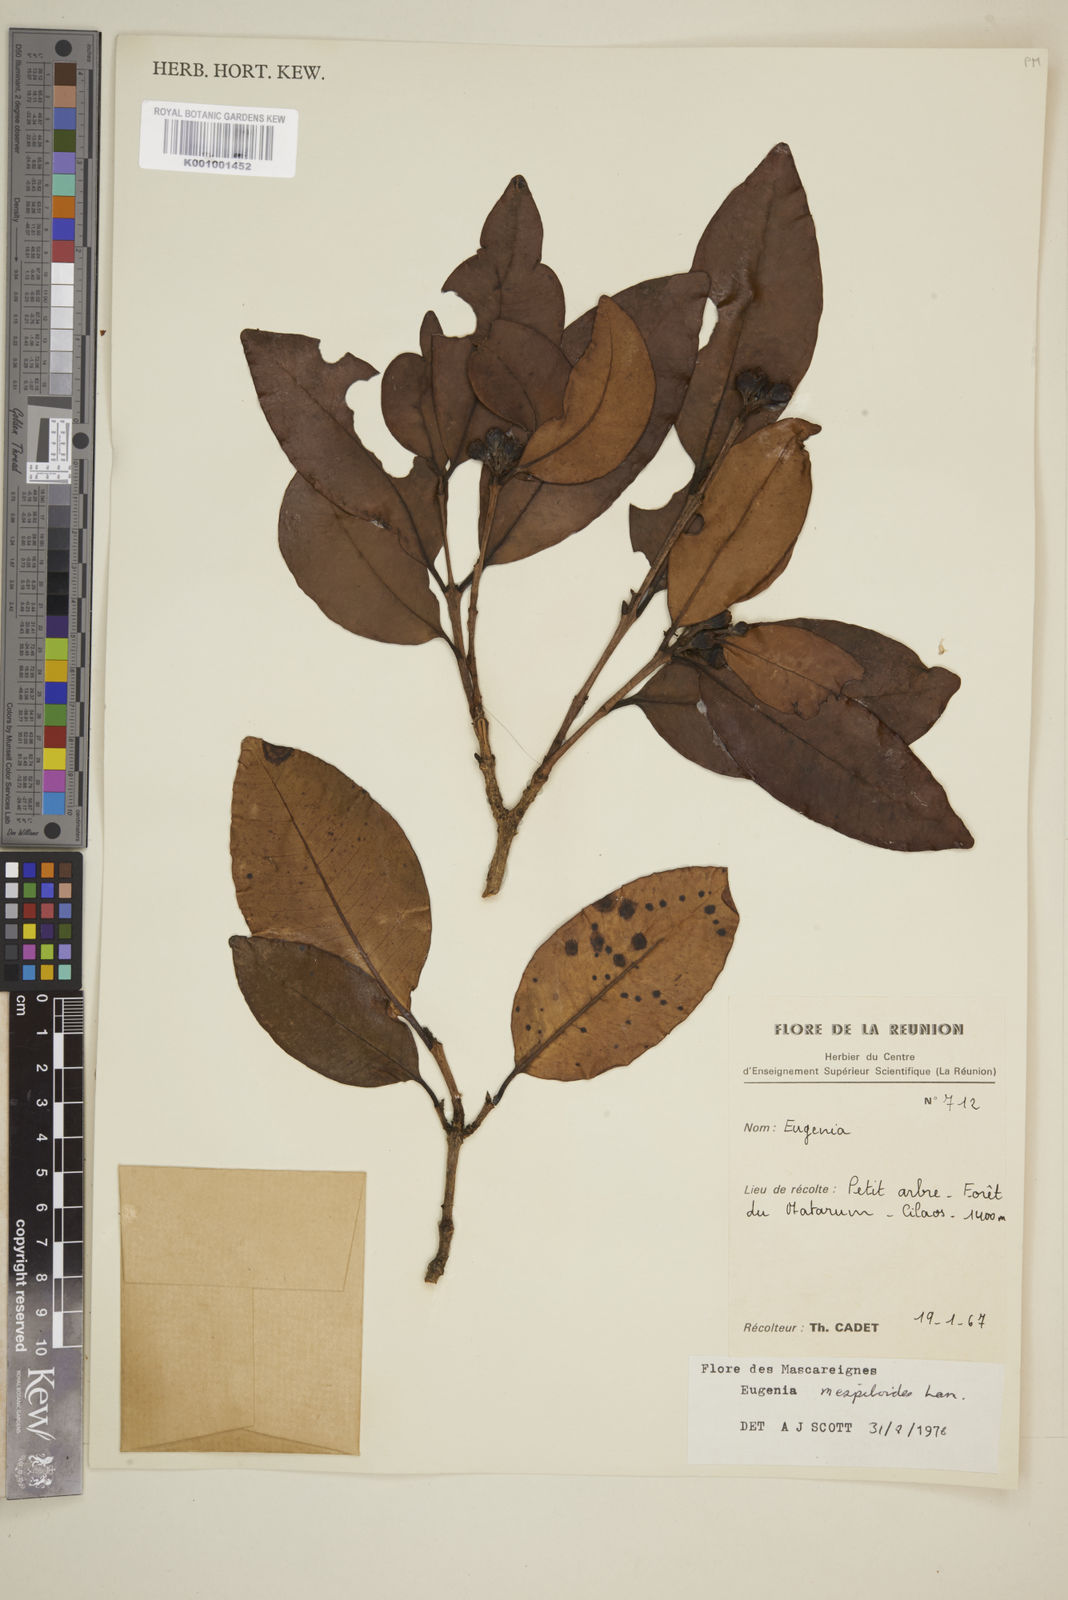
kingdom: Plantae
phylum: Tracheophyta
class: Magnoliopsida
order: Myrtales
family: Myrtaceae
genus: Eugenia
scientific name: Eugenia mespiloides
